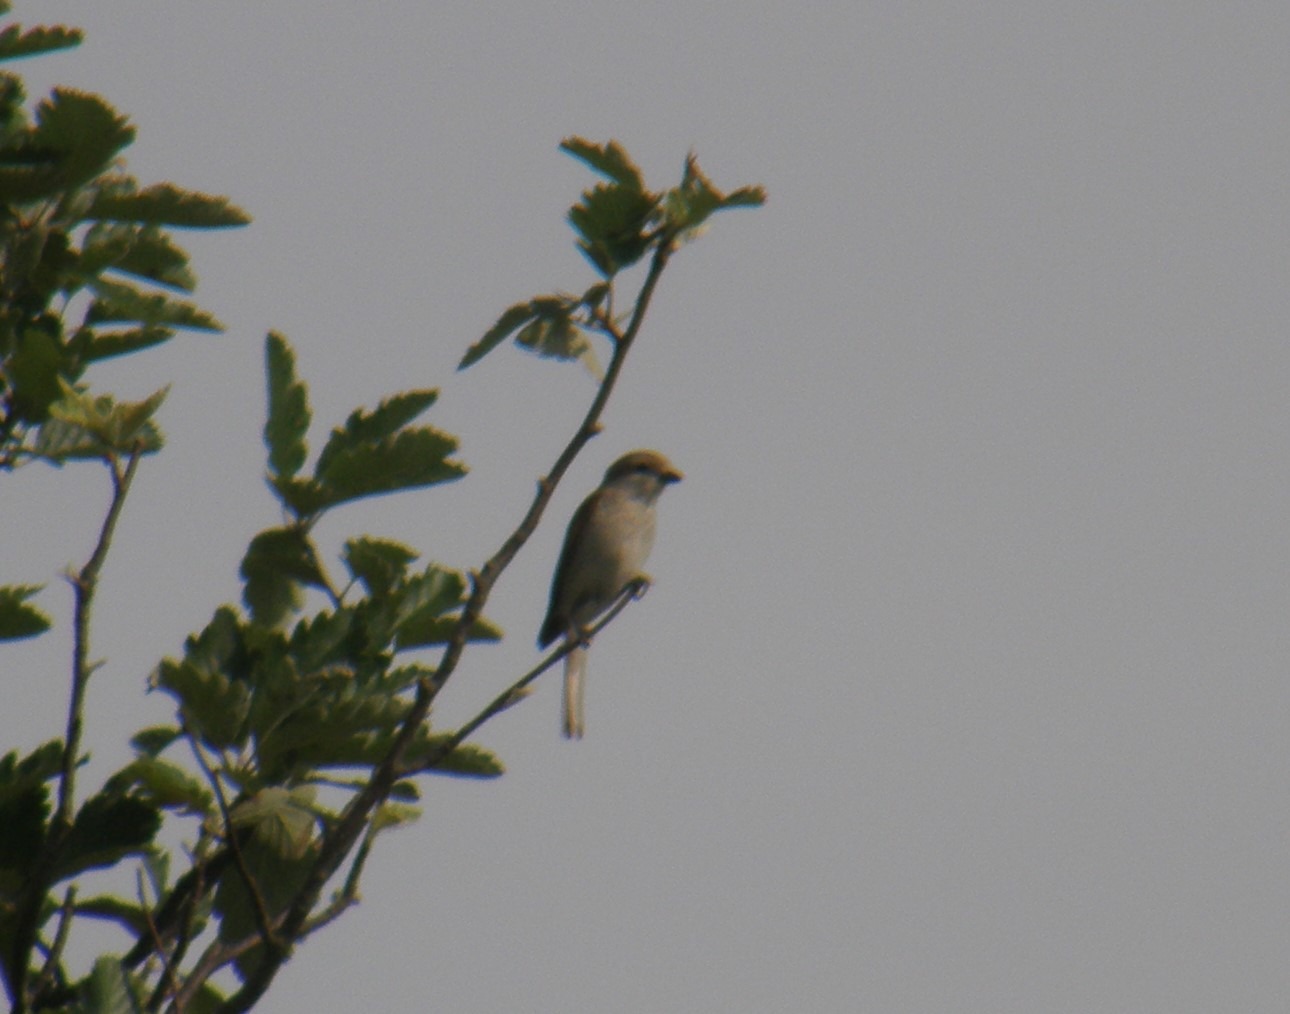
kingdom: Animalia
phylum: Chordata
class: Aves
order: Passeriformes
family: Laniidae
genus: Lanius
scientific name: Lanius collurio
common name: Rødrygget tornskade
